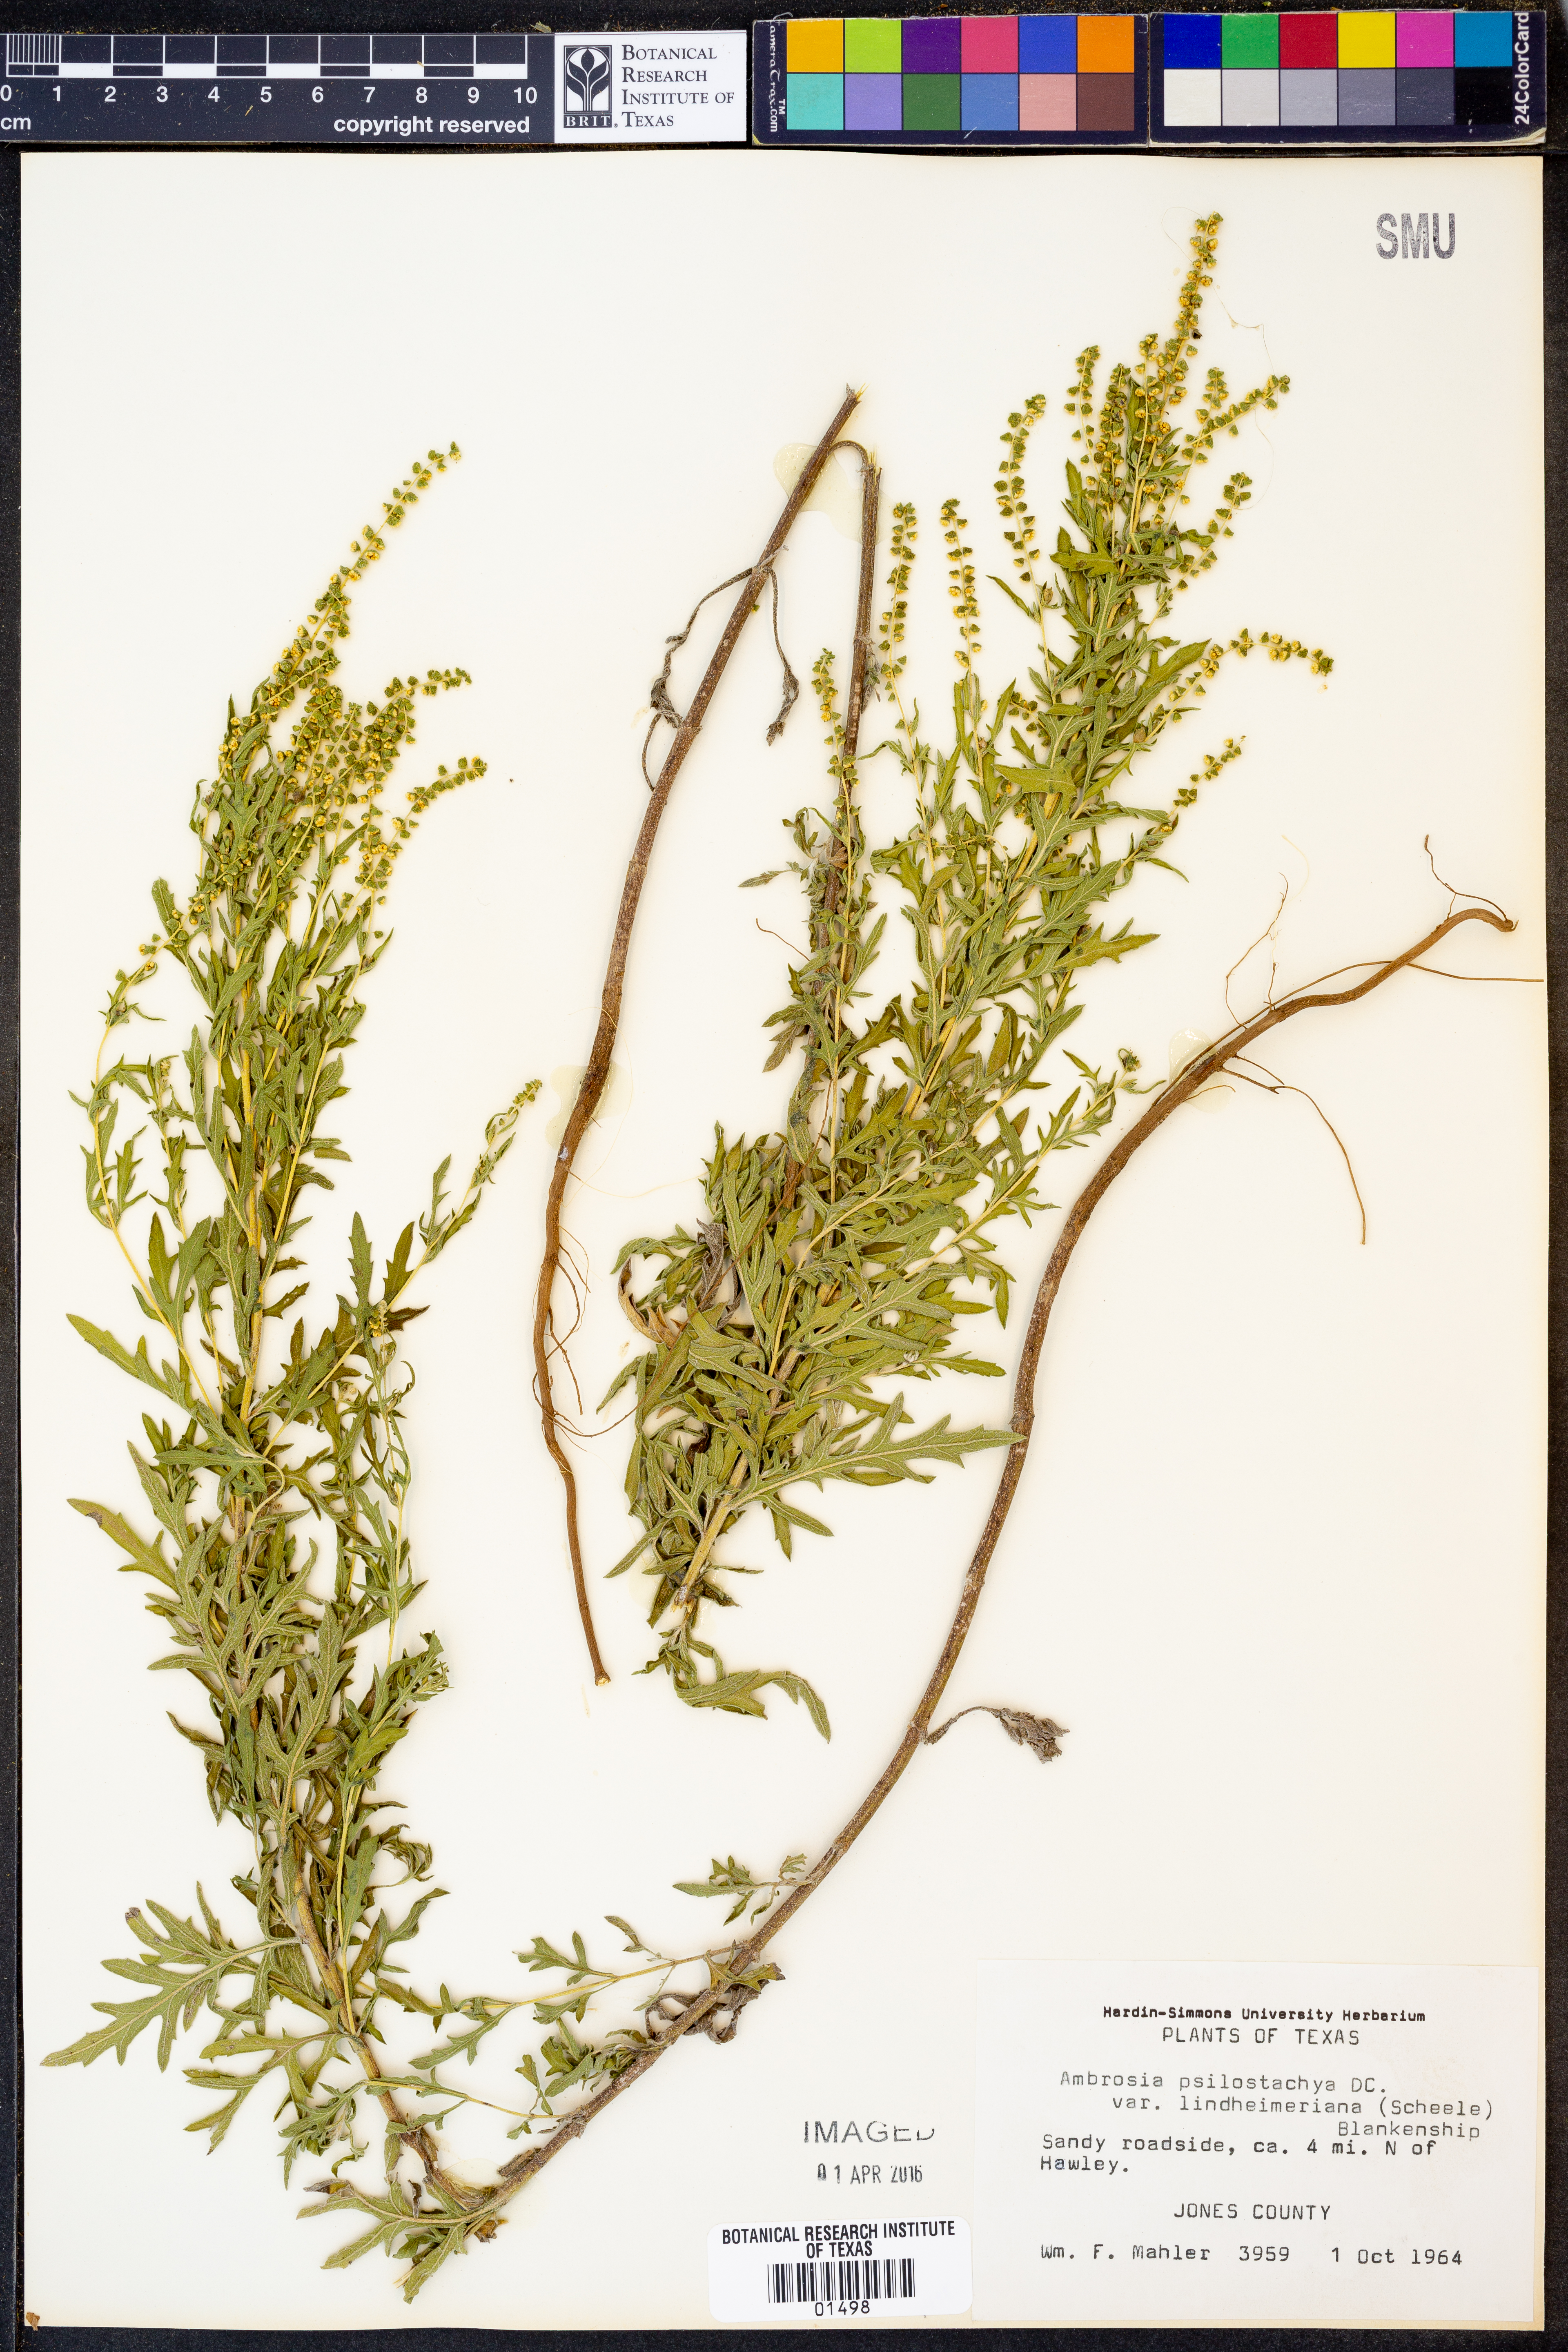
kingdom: Plantae
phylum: Tracheophyta
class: Magnoliopsida
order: Asterales
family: Asteraceae
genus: Ambrosia
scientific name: Ambrosia psilostachya
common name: Perennial ragweed
